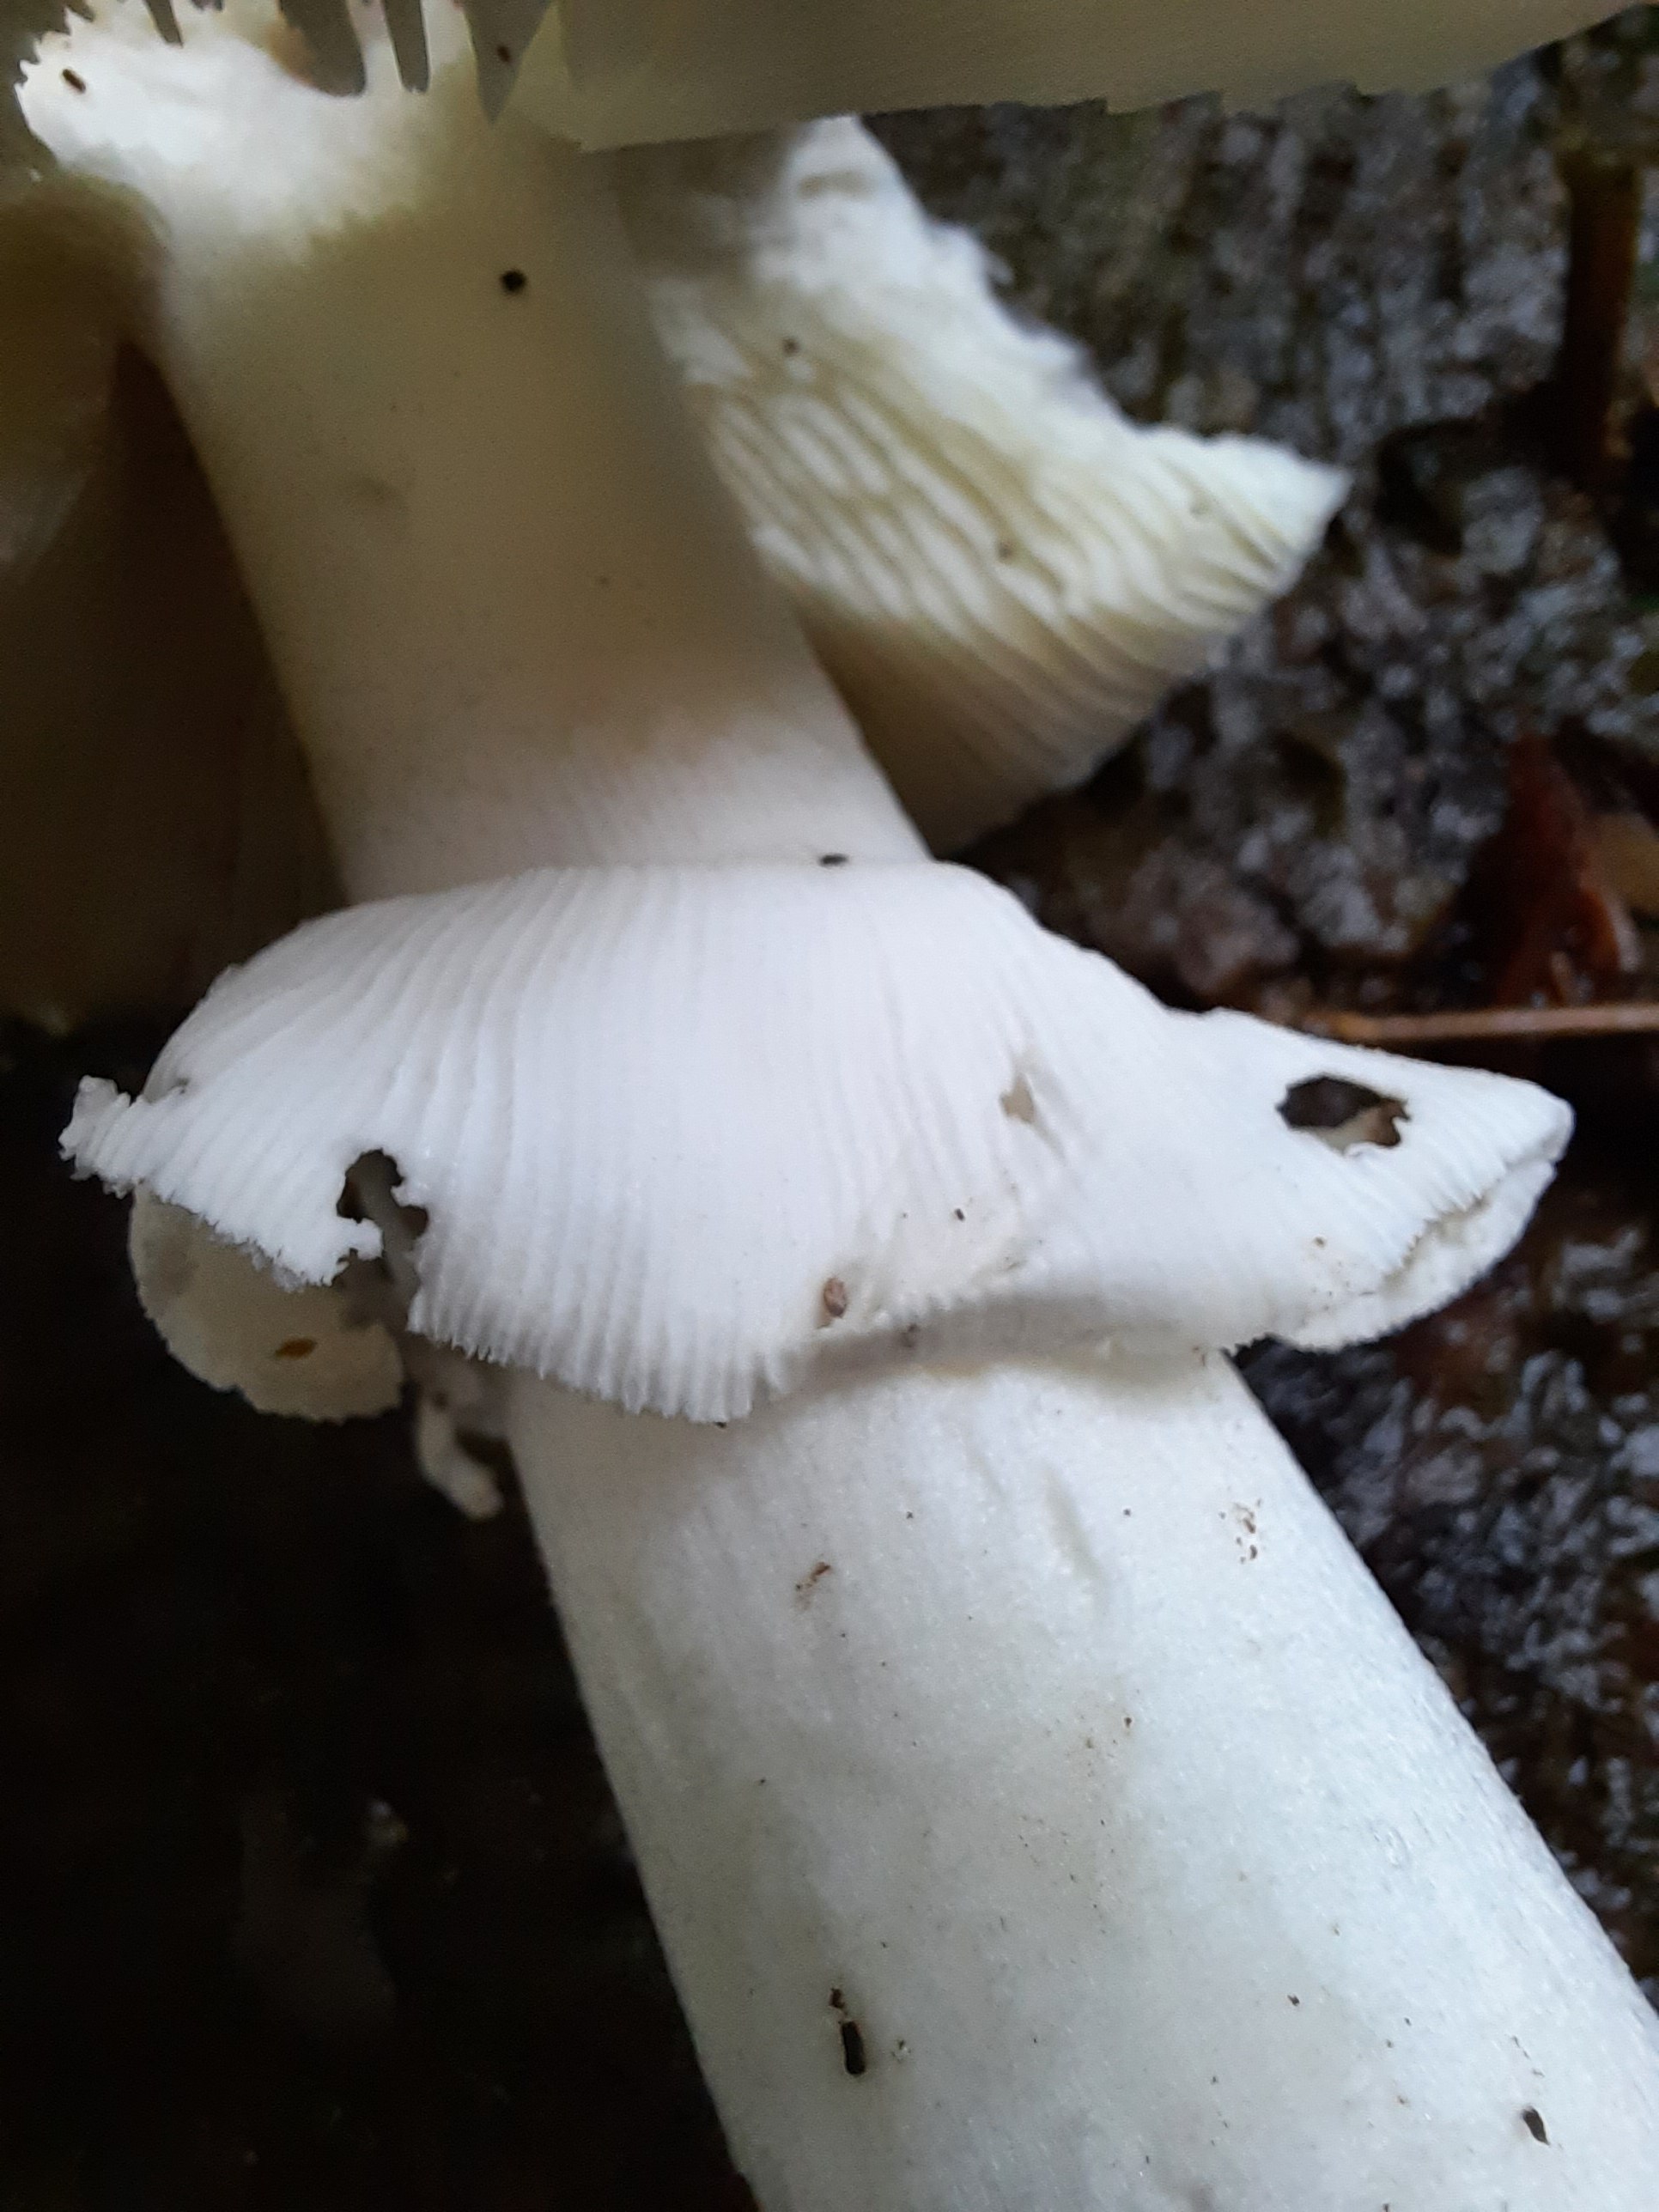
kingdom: Fungi
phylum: Basidiomycota
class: Agaricomycetes
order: Agaricales
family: Amanitaceae
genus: Amanita
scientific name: Amanita
